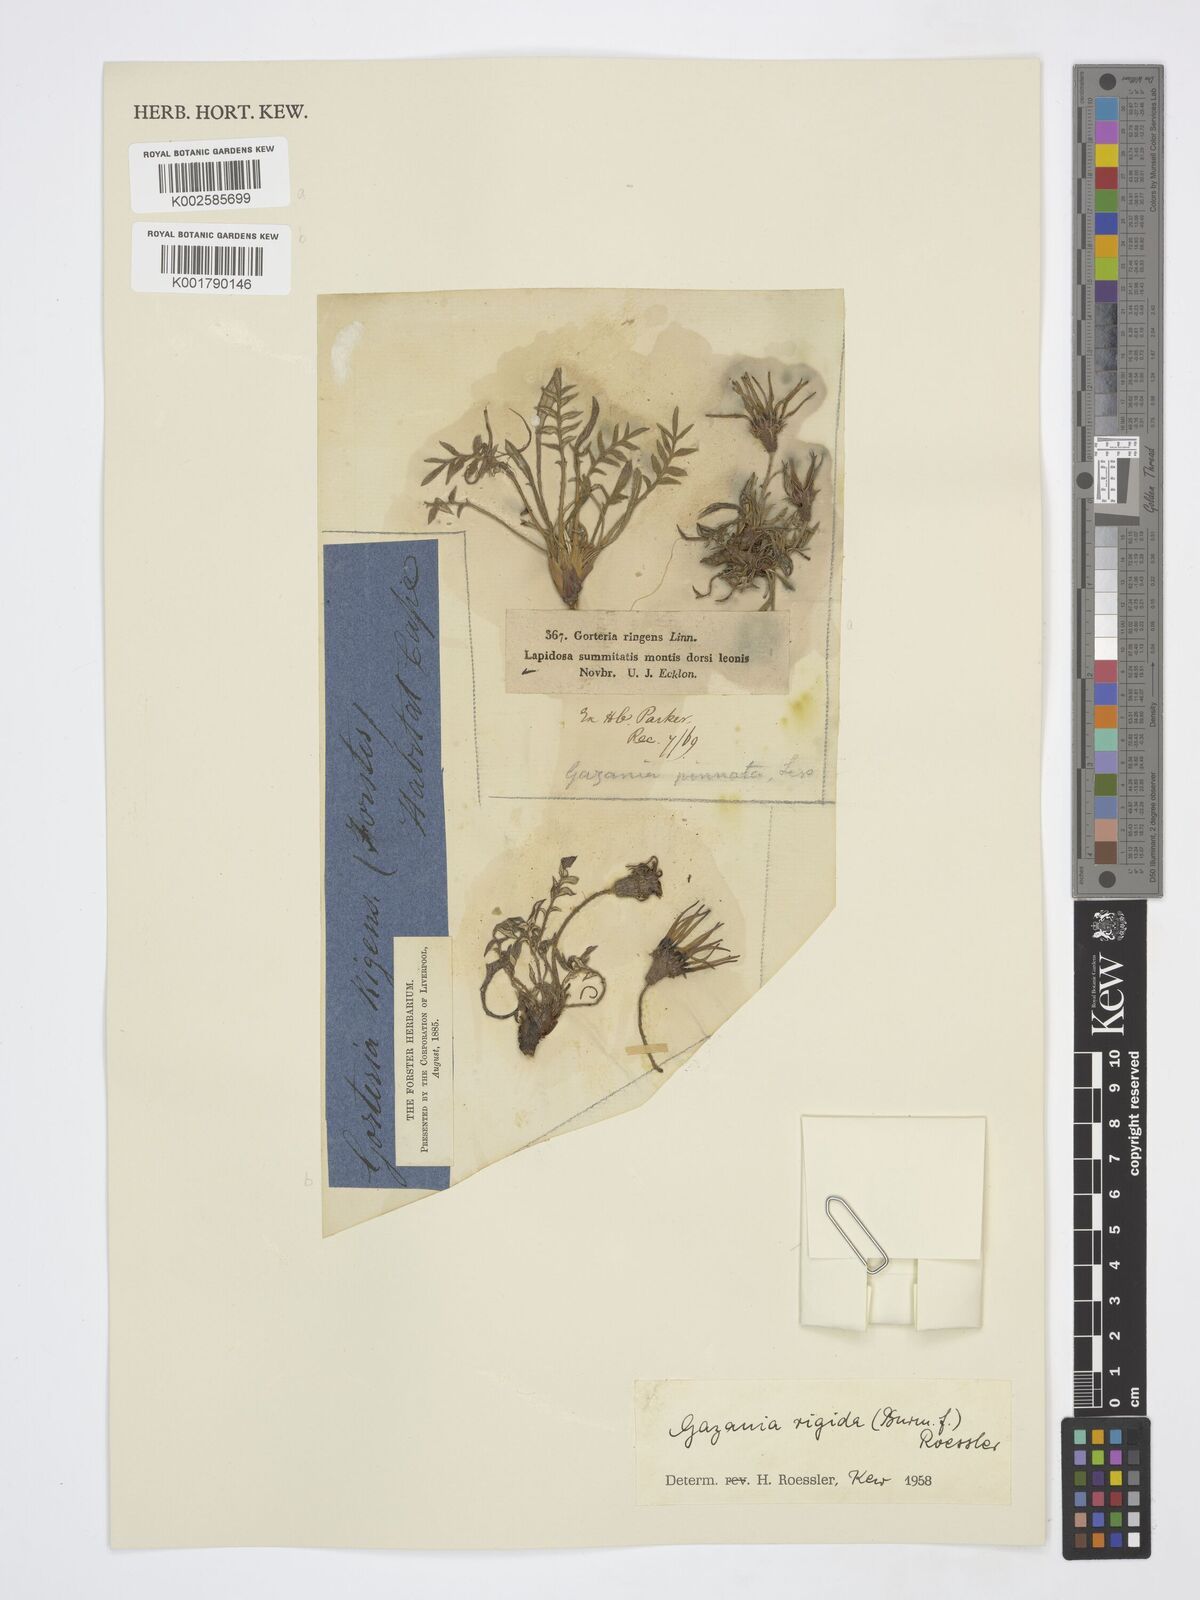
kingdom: Plantae
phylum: Tracheophyta
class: Magnoliopsida
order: Asterales
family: Asteraceae
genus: Gazania
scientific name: Gazania rigida
